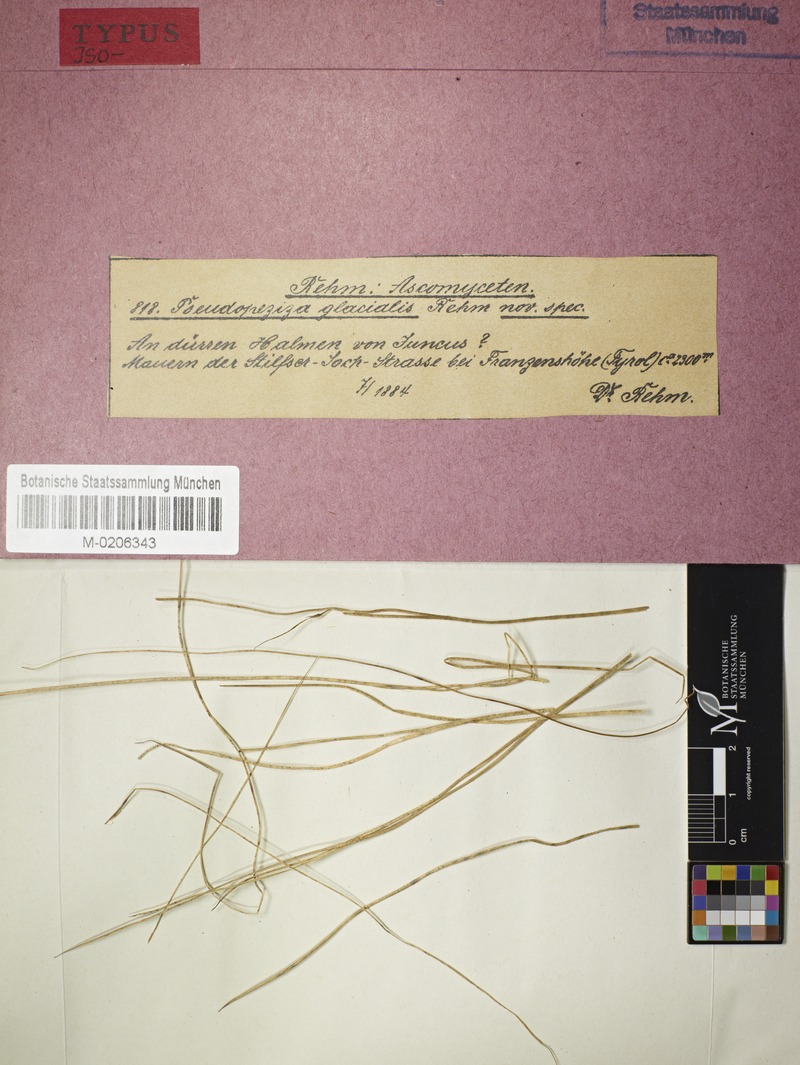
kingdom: Fungi
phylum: Ascomycota
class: Leotiomycetes
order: Helotiales
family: Calloriaceae
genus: Diplonaevia
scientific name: Diplonaevia emergens
